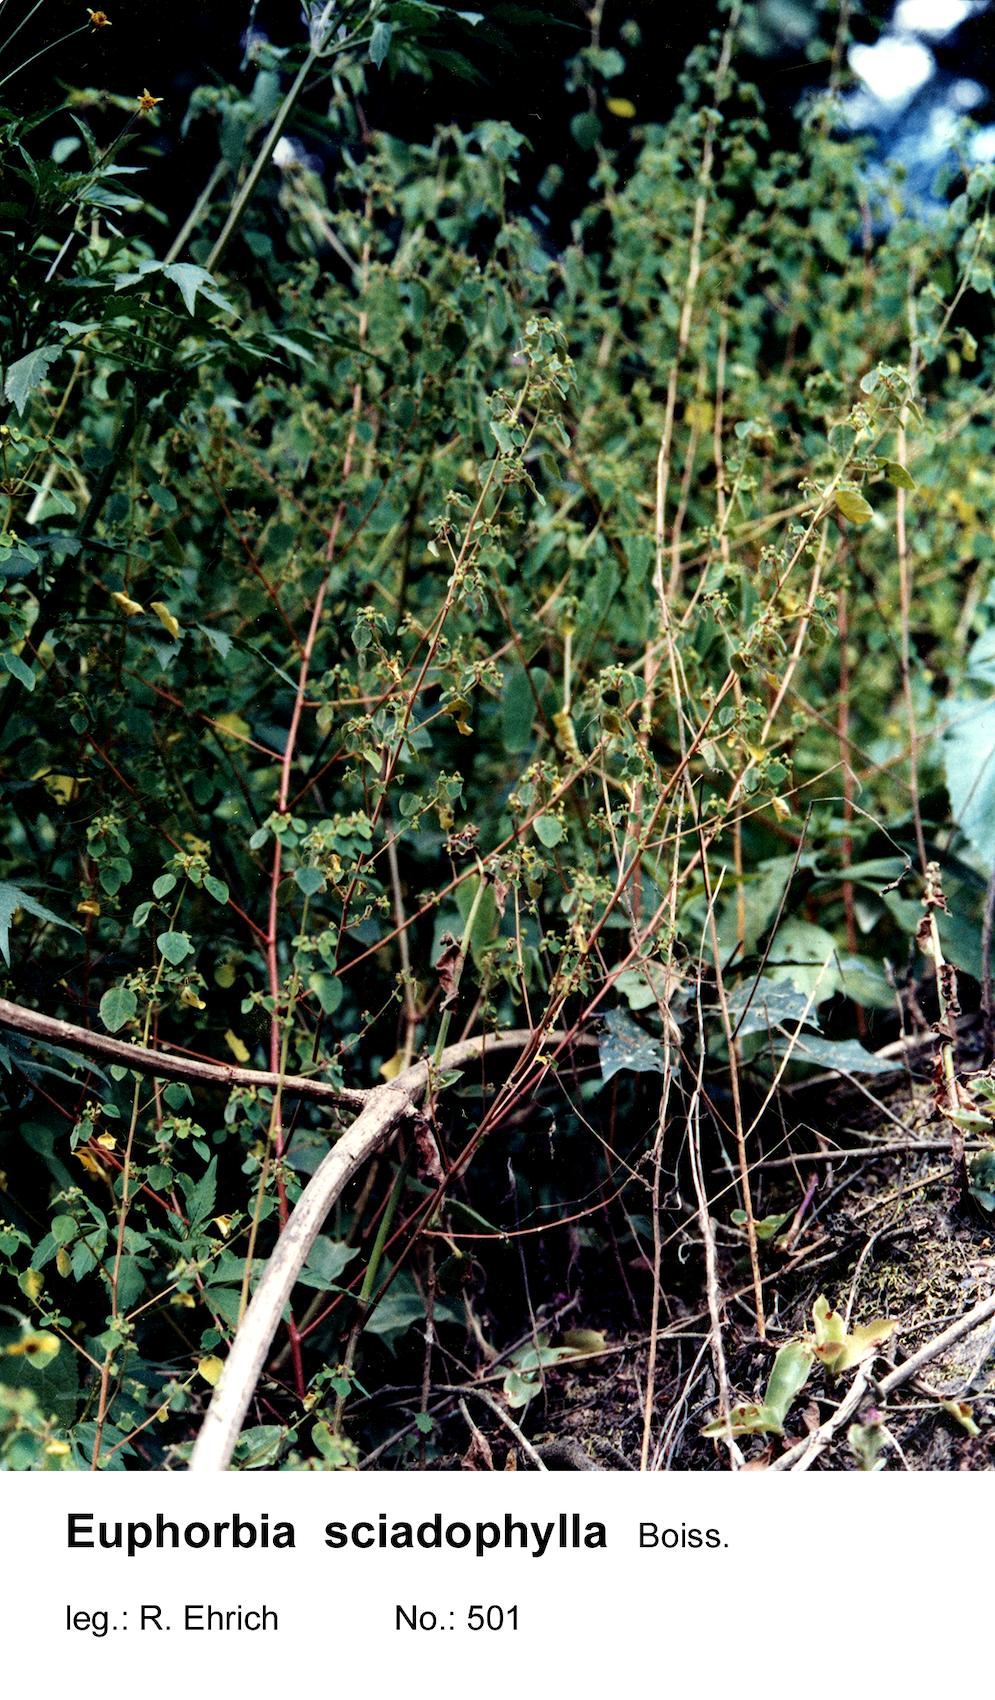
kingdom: Plantae
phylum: Tracheophyta
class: Magnoliopsida
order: Malpighiales
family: Euphorbiaceae
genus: Euphorbia
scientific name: Euphorbia sciadophila
